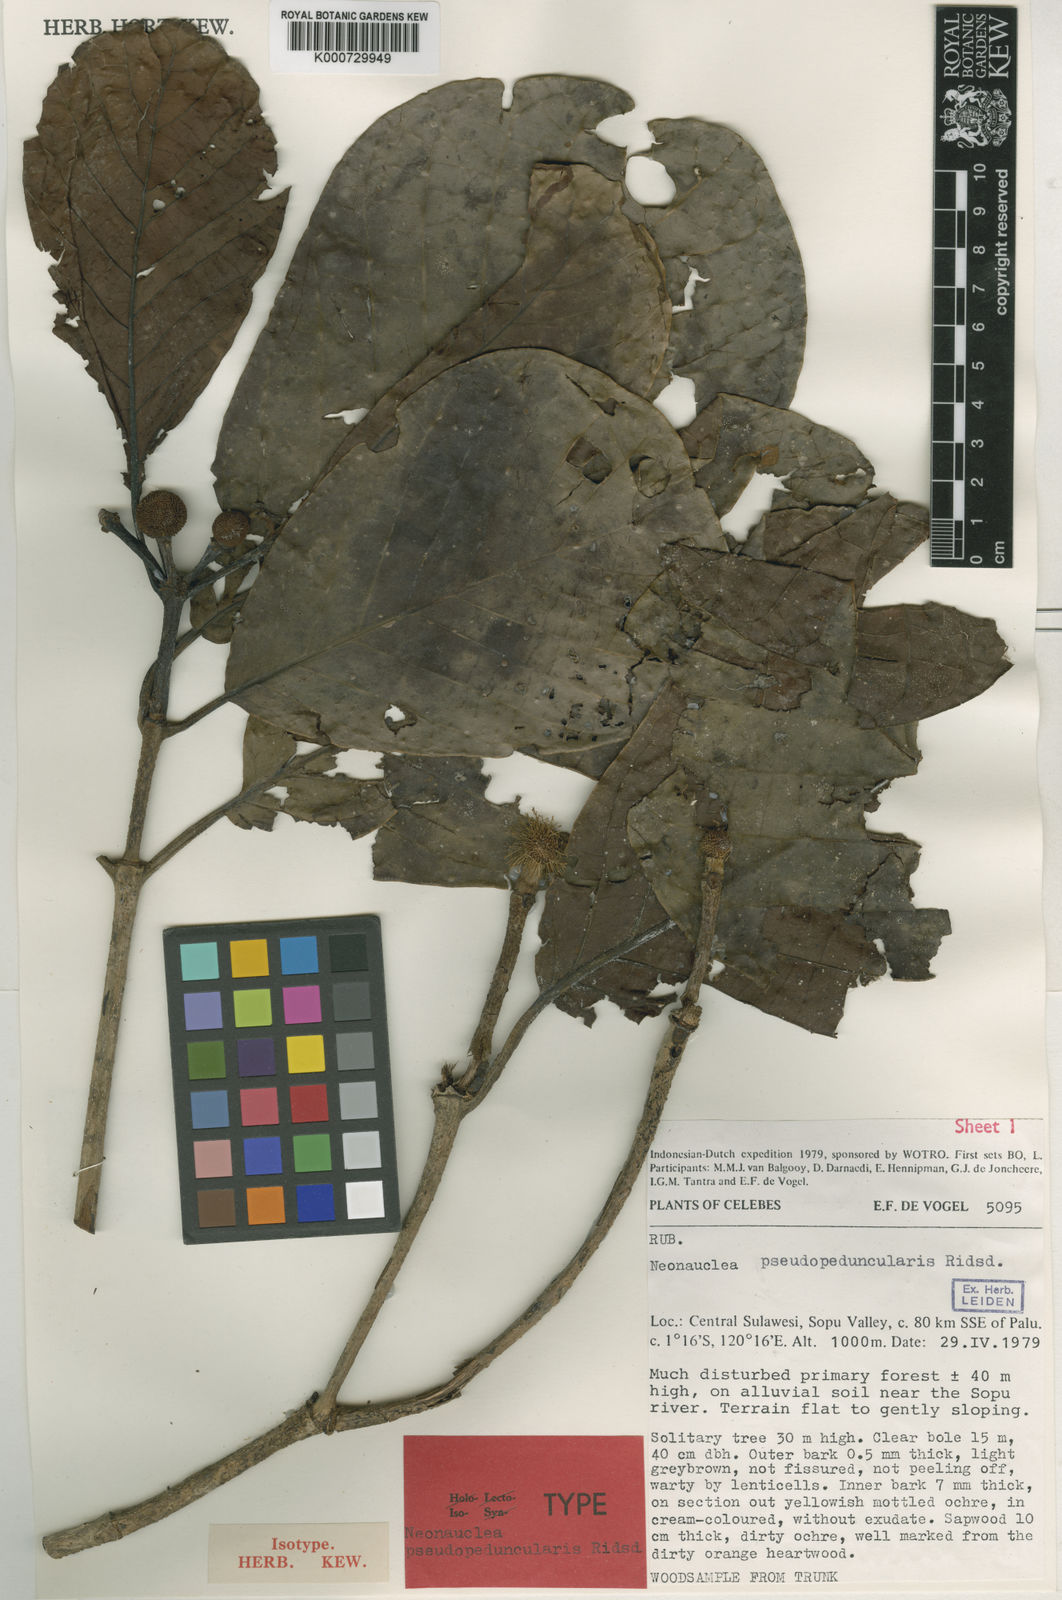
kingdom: Plantae
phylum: Tracheophyta
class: Magnoliopsida
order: Gentianales
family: Rubiaceae
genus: Neonauclea
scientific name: Neonauclea pseudopeduncularis
